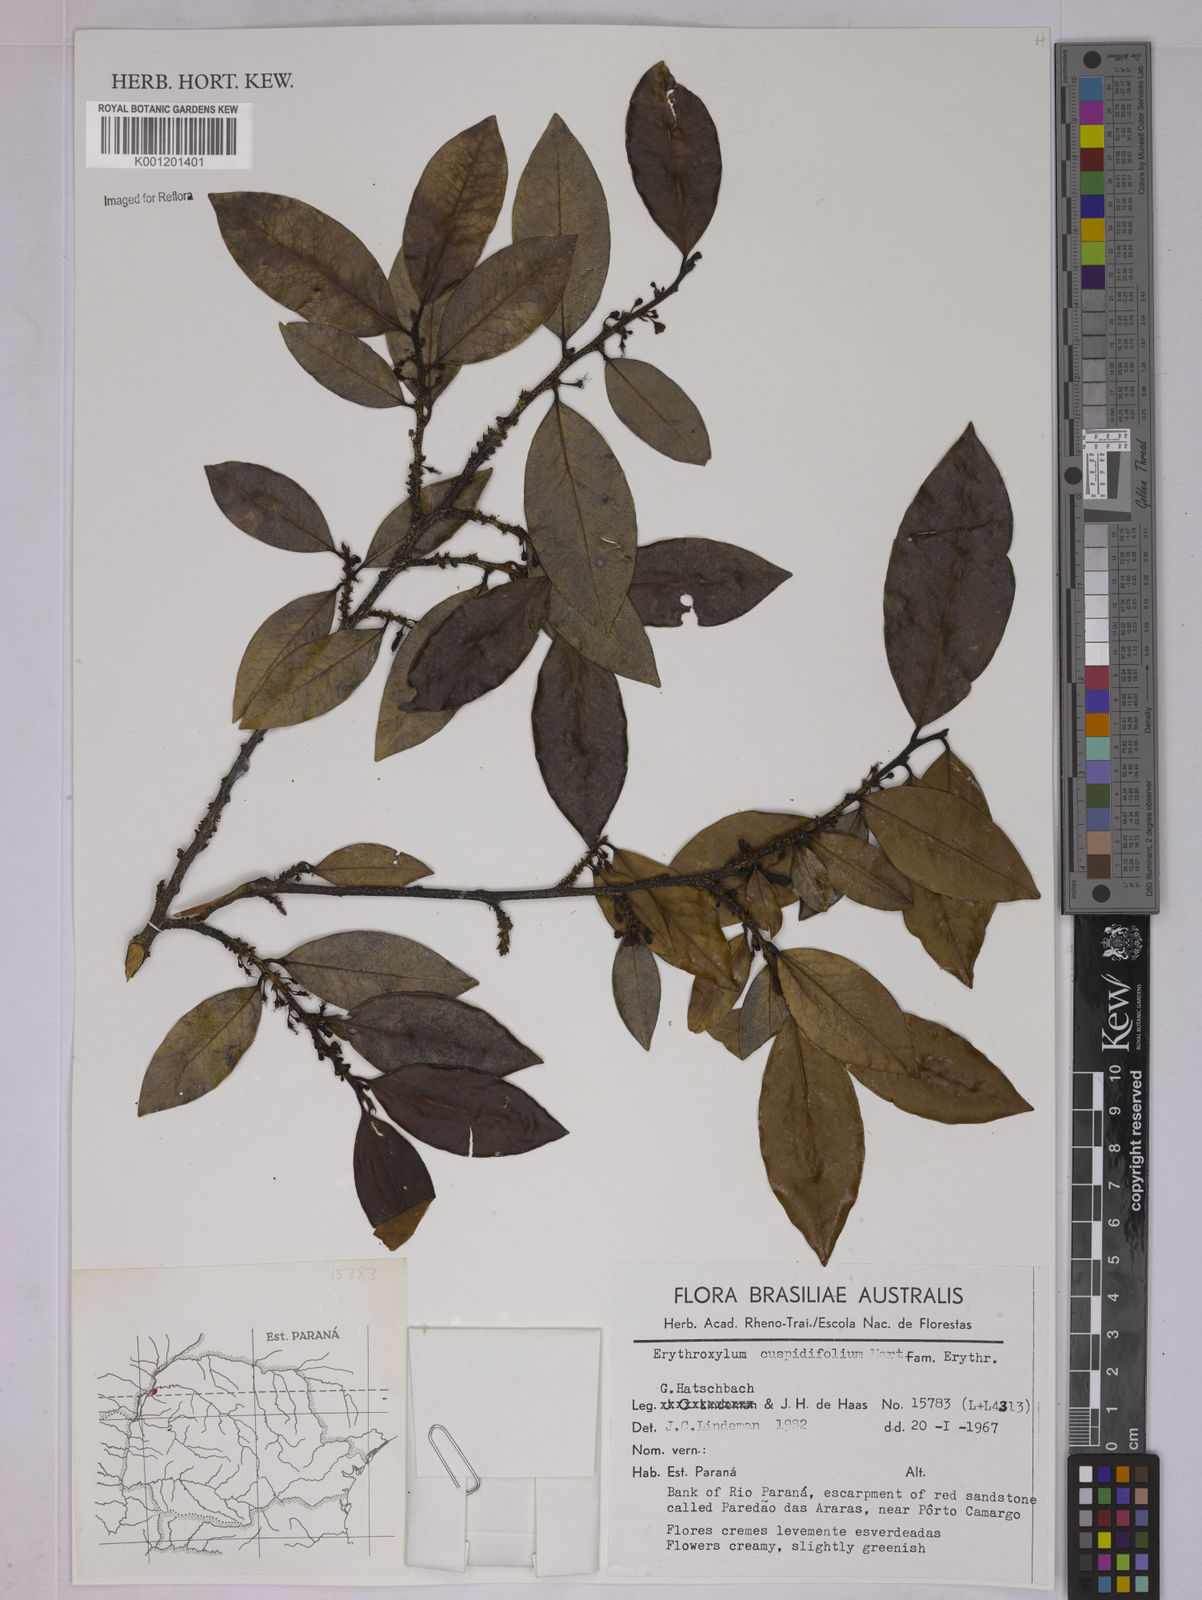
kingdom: Plantae
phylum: Tracheophyta
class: Magnoliopsida
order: Malpighiales
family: Erythroxylaceae
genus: Erythroxylum
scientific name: Erythroxylum cuspidifolium
